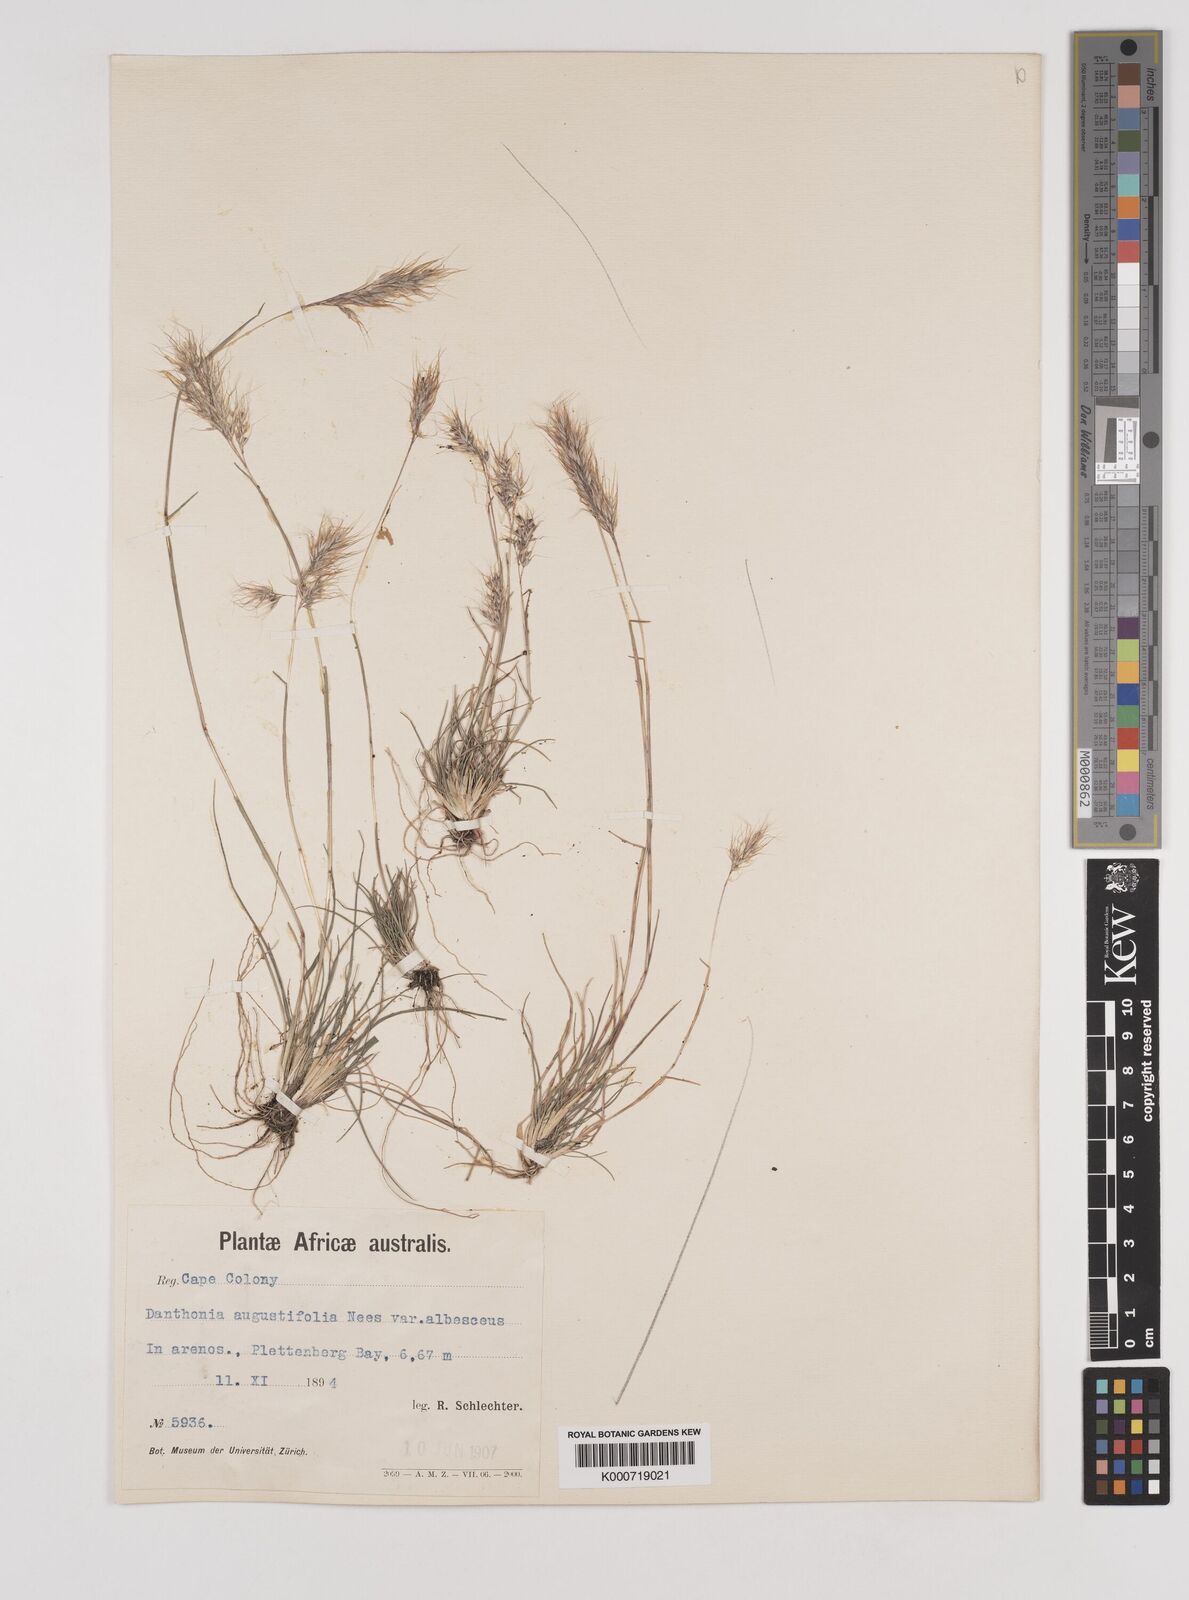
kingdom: Plantae
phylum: Tracheophyta
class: Liliopsida
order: Poales
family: Poaceae
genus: Pentameris
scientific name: Pentameris pallida
